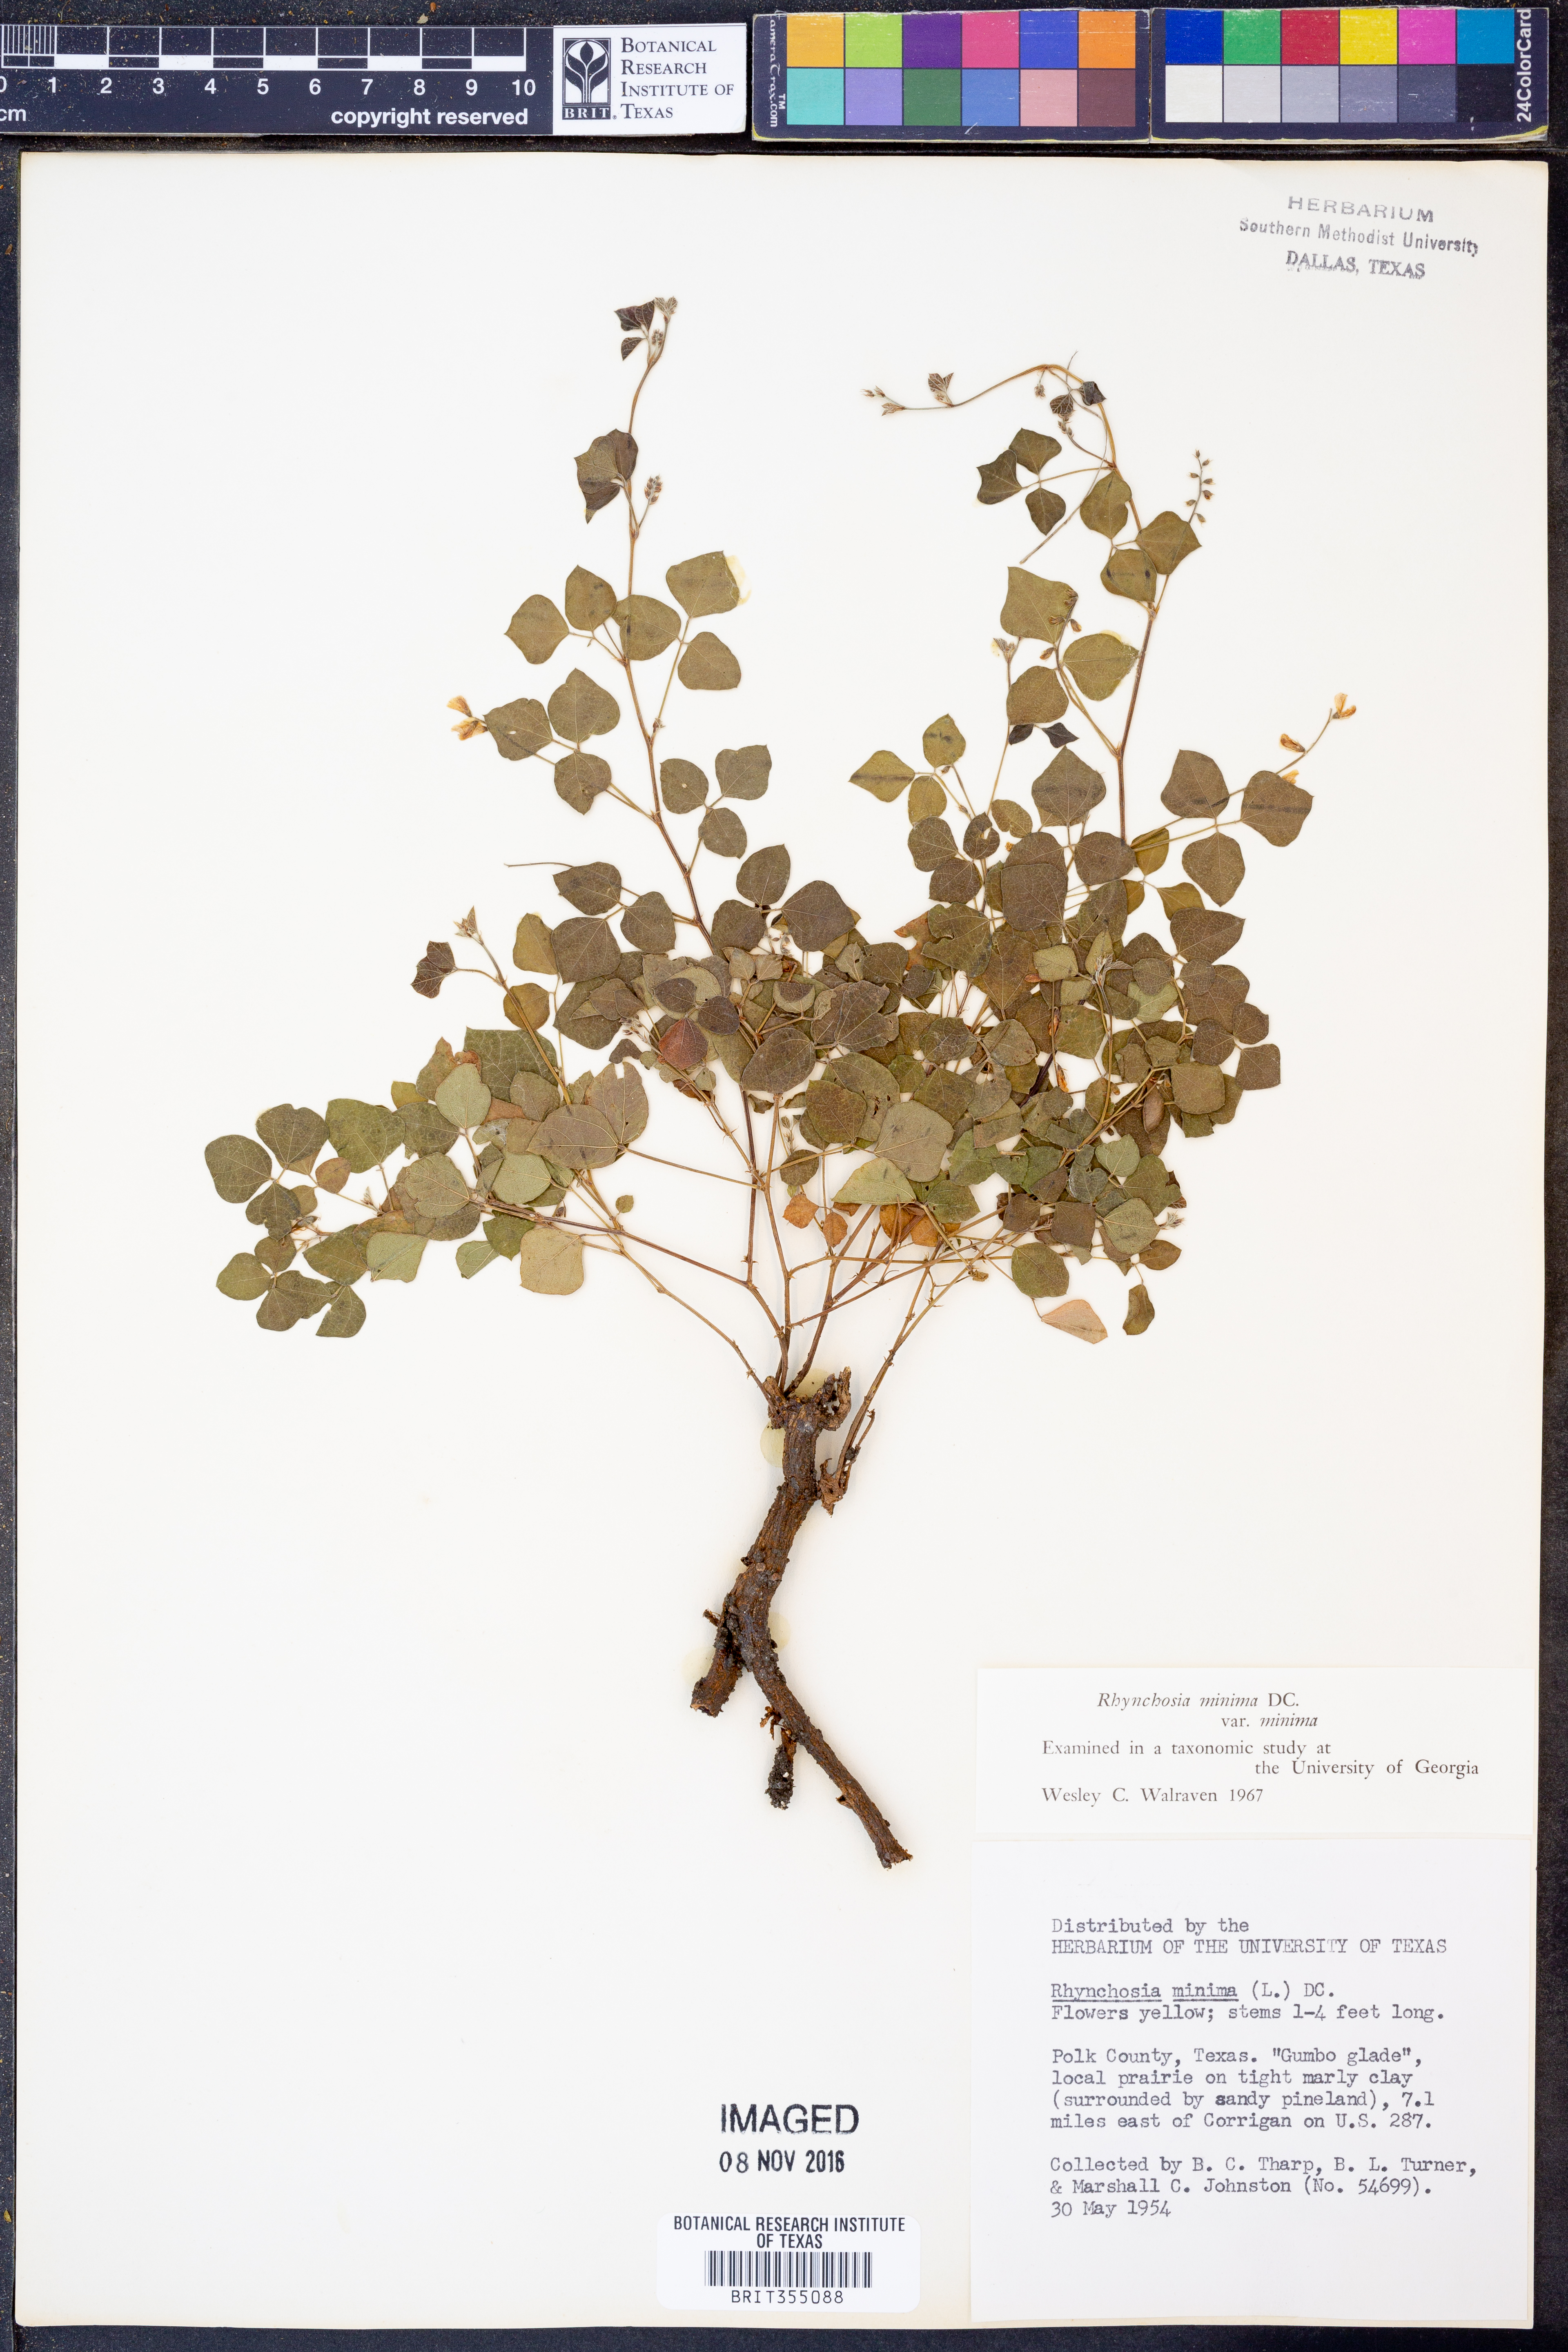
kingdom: Plantae
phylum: Tracheophyta
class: Magnoliopsida
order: Fabales
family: Fabaceae
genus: Rhynchosia
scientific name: Rhynchosia minima
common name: Least snoutbean
